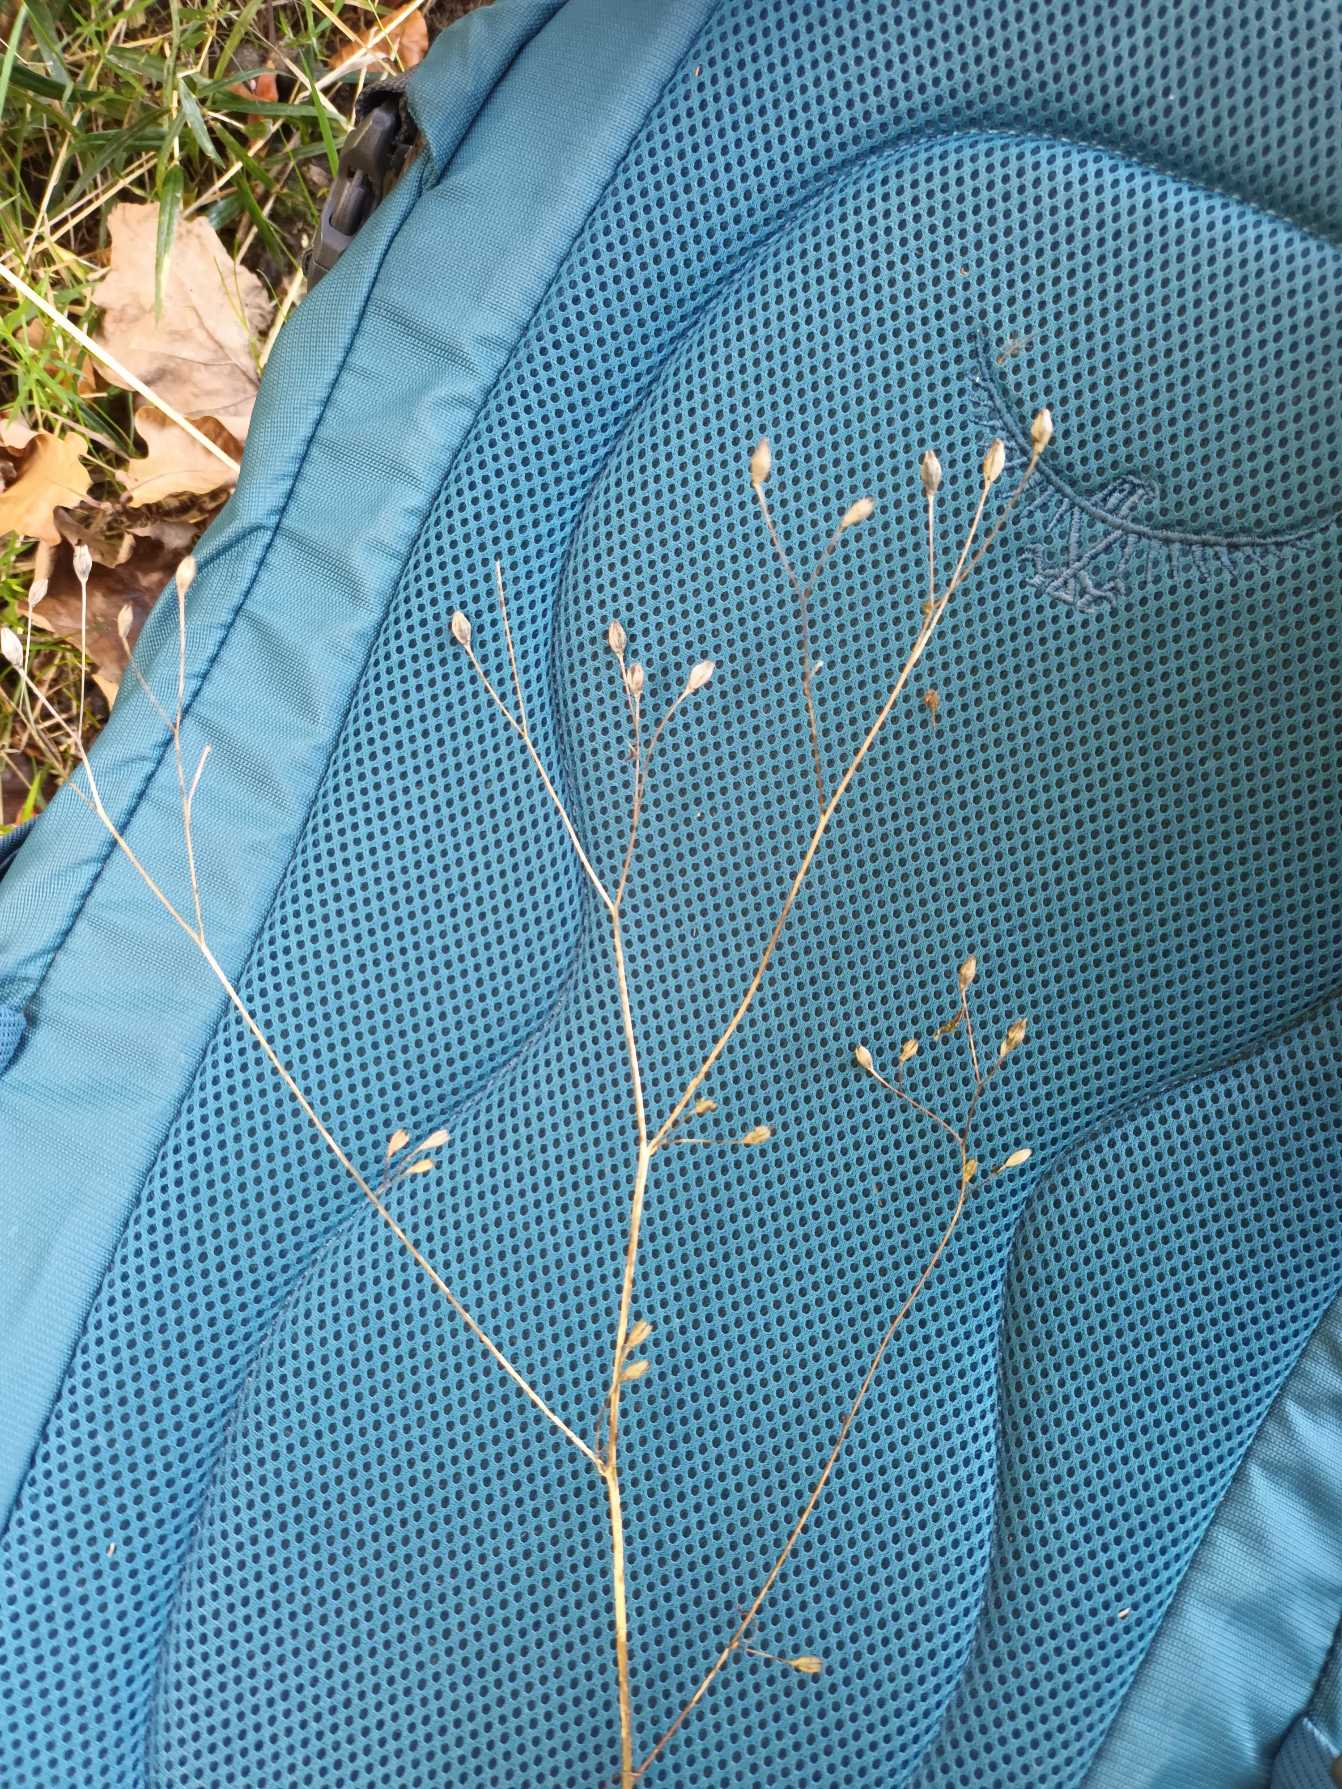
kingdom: Plantae
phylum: Tracheophyta
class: Magnoliopsida
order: Asterales
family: Asteraceae
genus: Lapsana
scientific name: Lapsana communis
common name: Haremad
